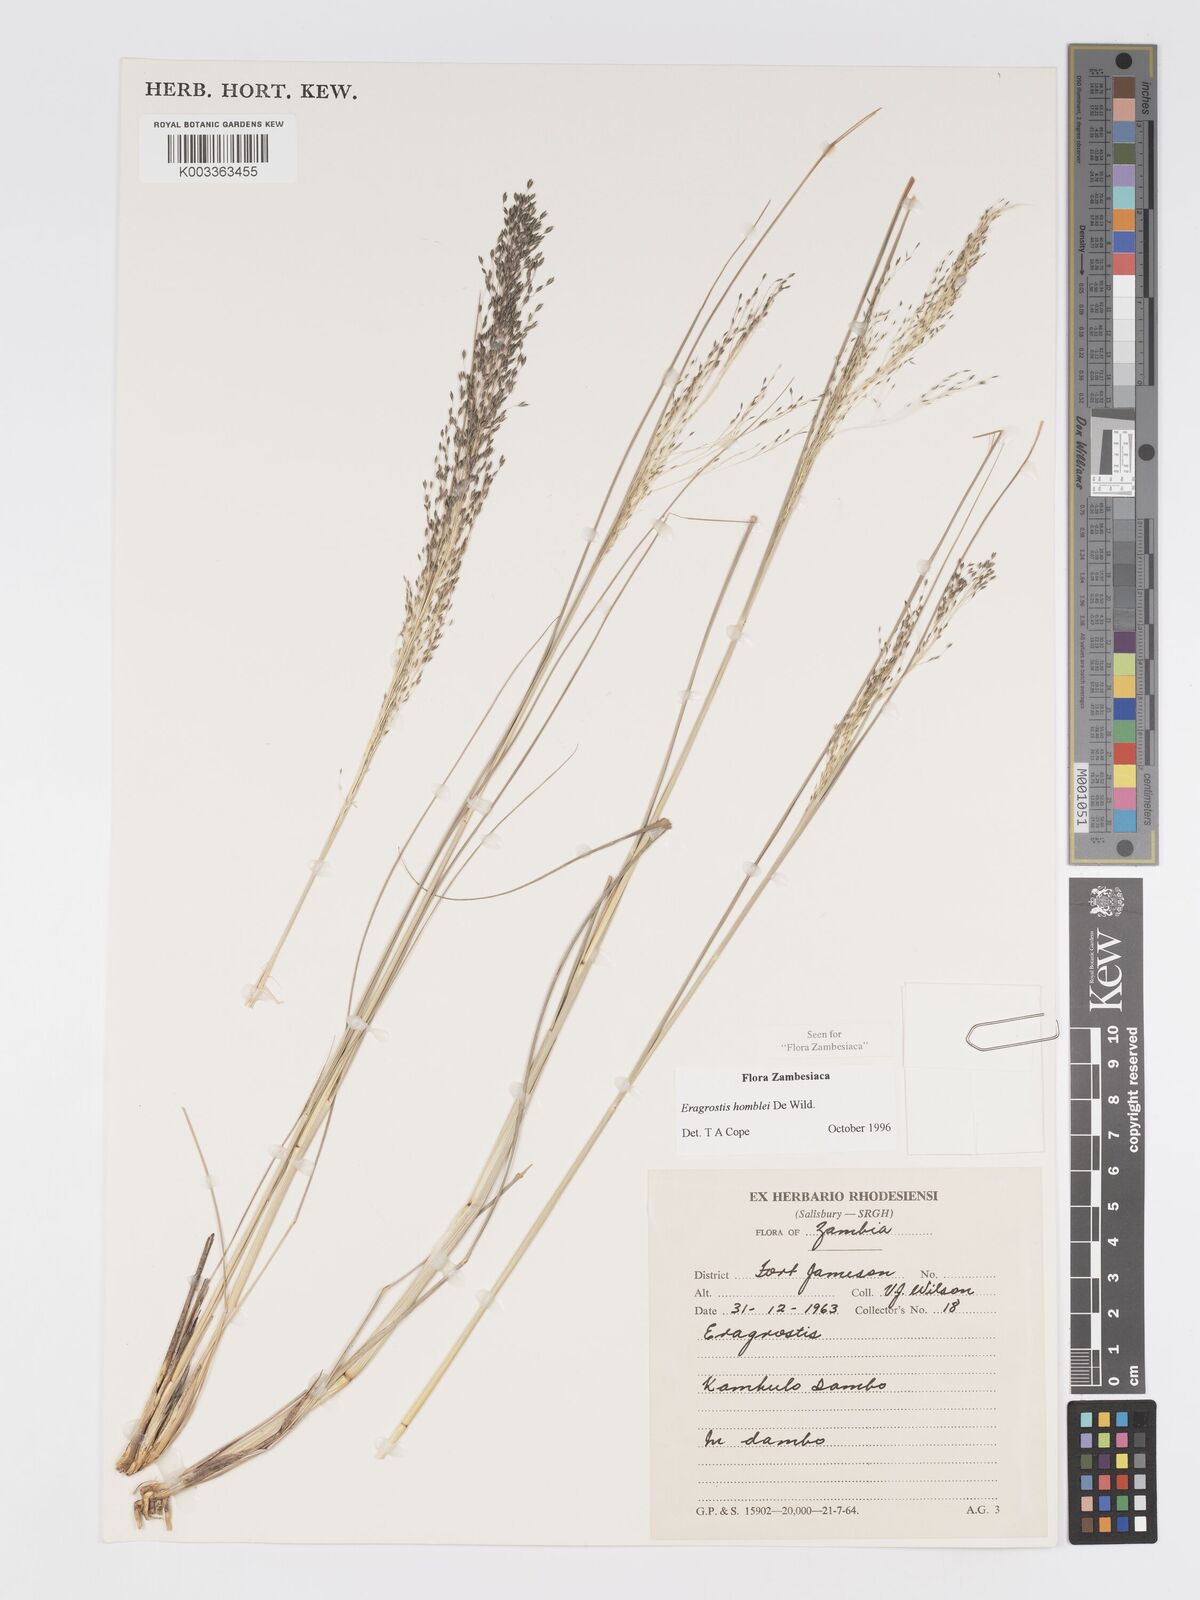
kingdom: Plantae
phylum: Tracheophyta
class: Liliopsida
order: Poales
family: Poaceae
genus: Eragrostis
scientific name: Eragrostis homblei
